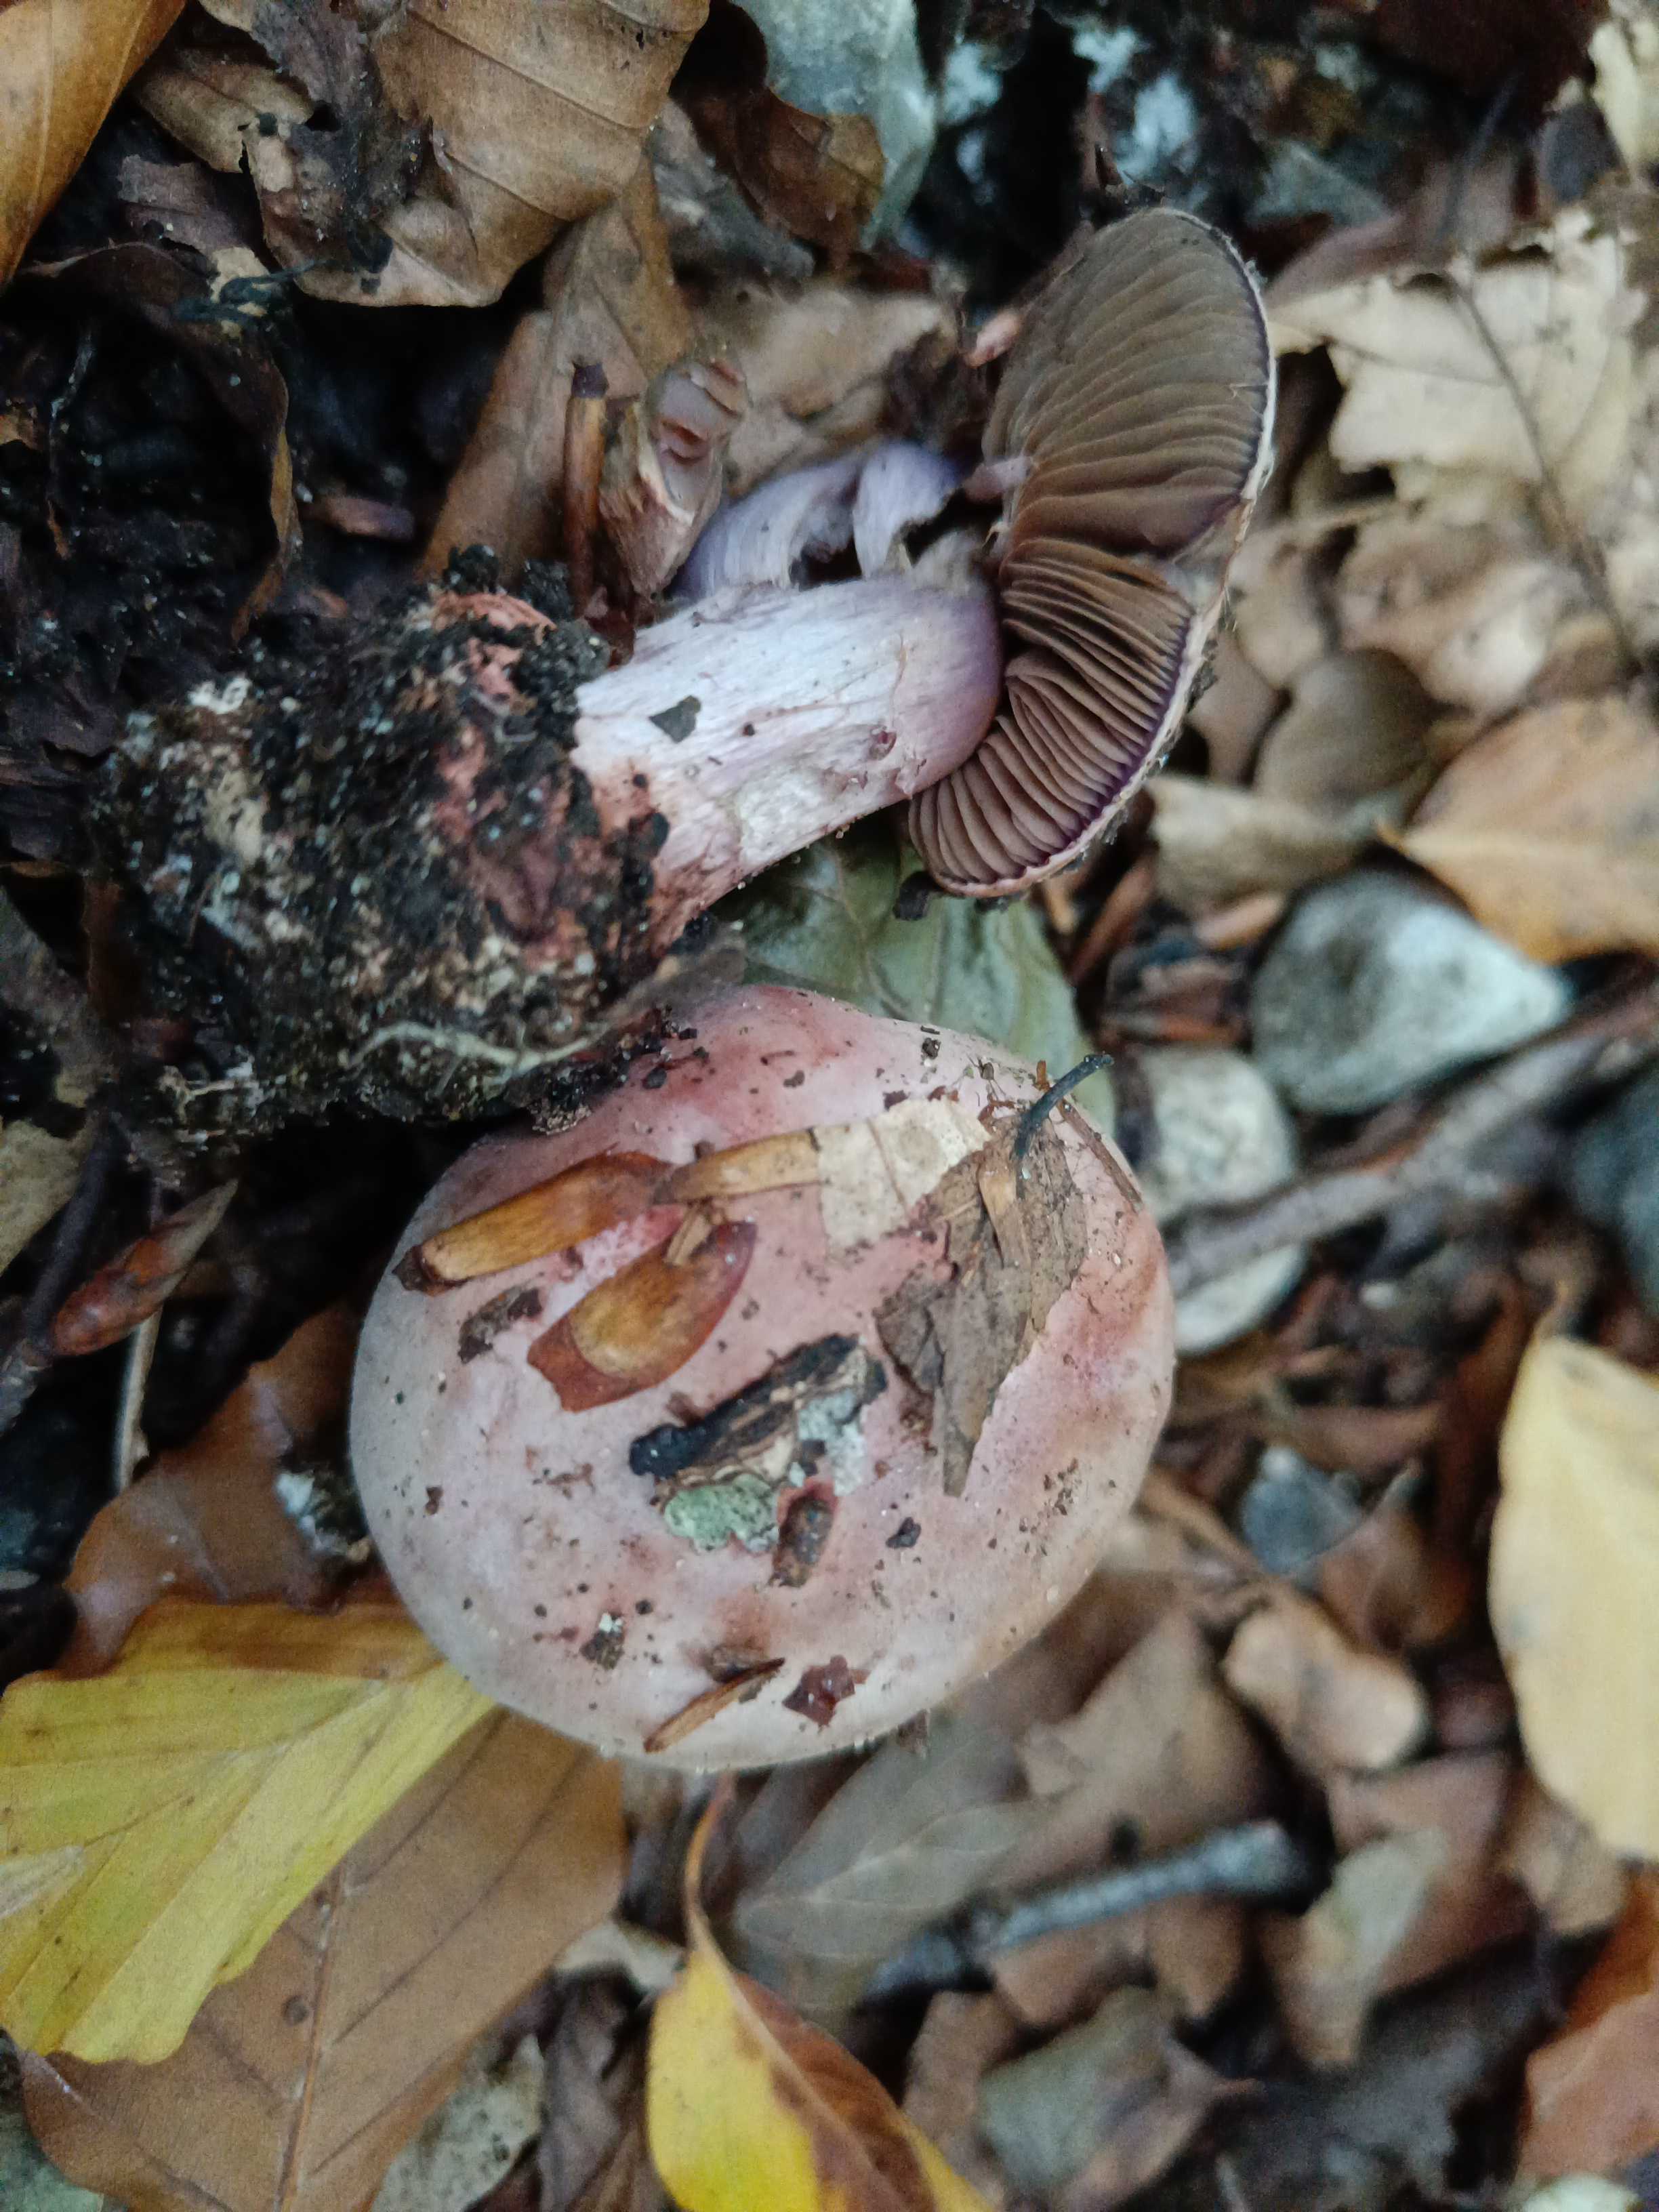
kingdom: Fungi
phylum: Basidiomycota
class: Agaricomycetes
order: Agaricales
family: Cortinariaceae
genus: Calonarius
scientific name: Calonarius rufo-olivaceus
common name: firefarvet slørhat
